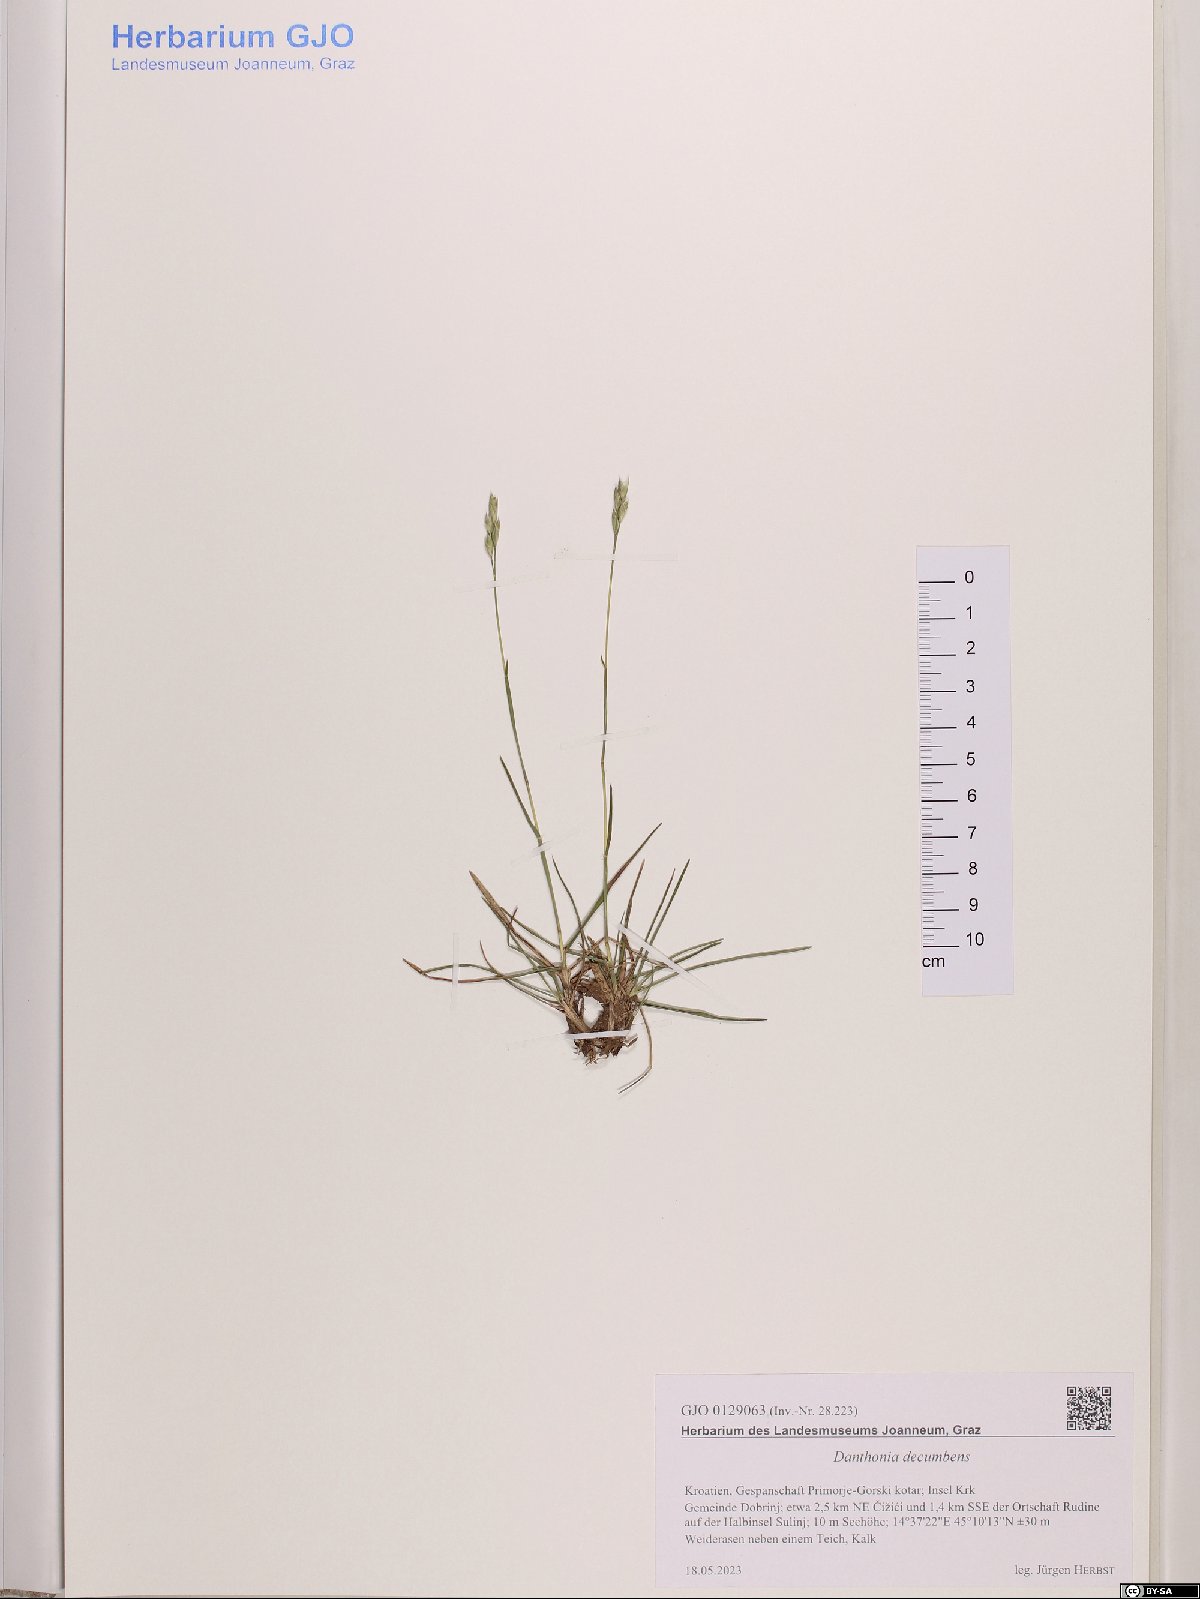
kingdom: Plantae
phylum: Tracheophyta
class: Liliopsida
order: Poales
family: Poaceae
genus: Danthonia
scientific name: Danthonia decumbens
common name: Common heathgrass
